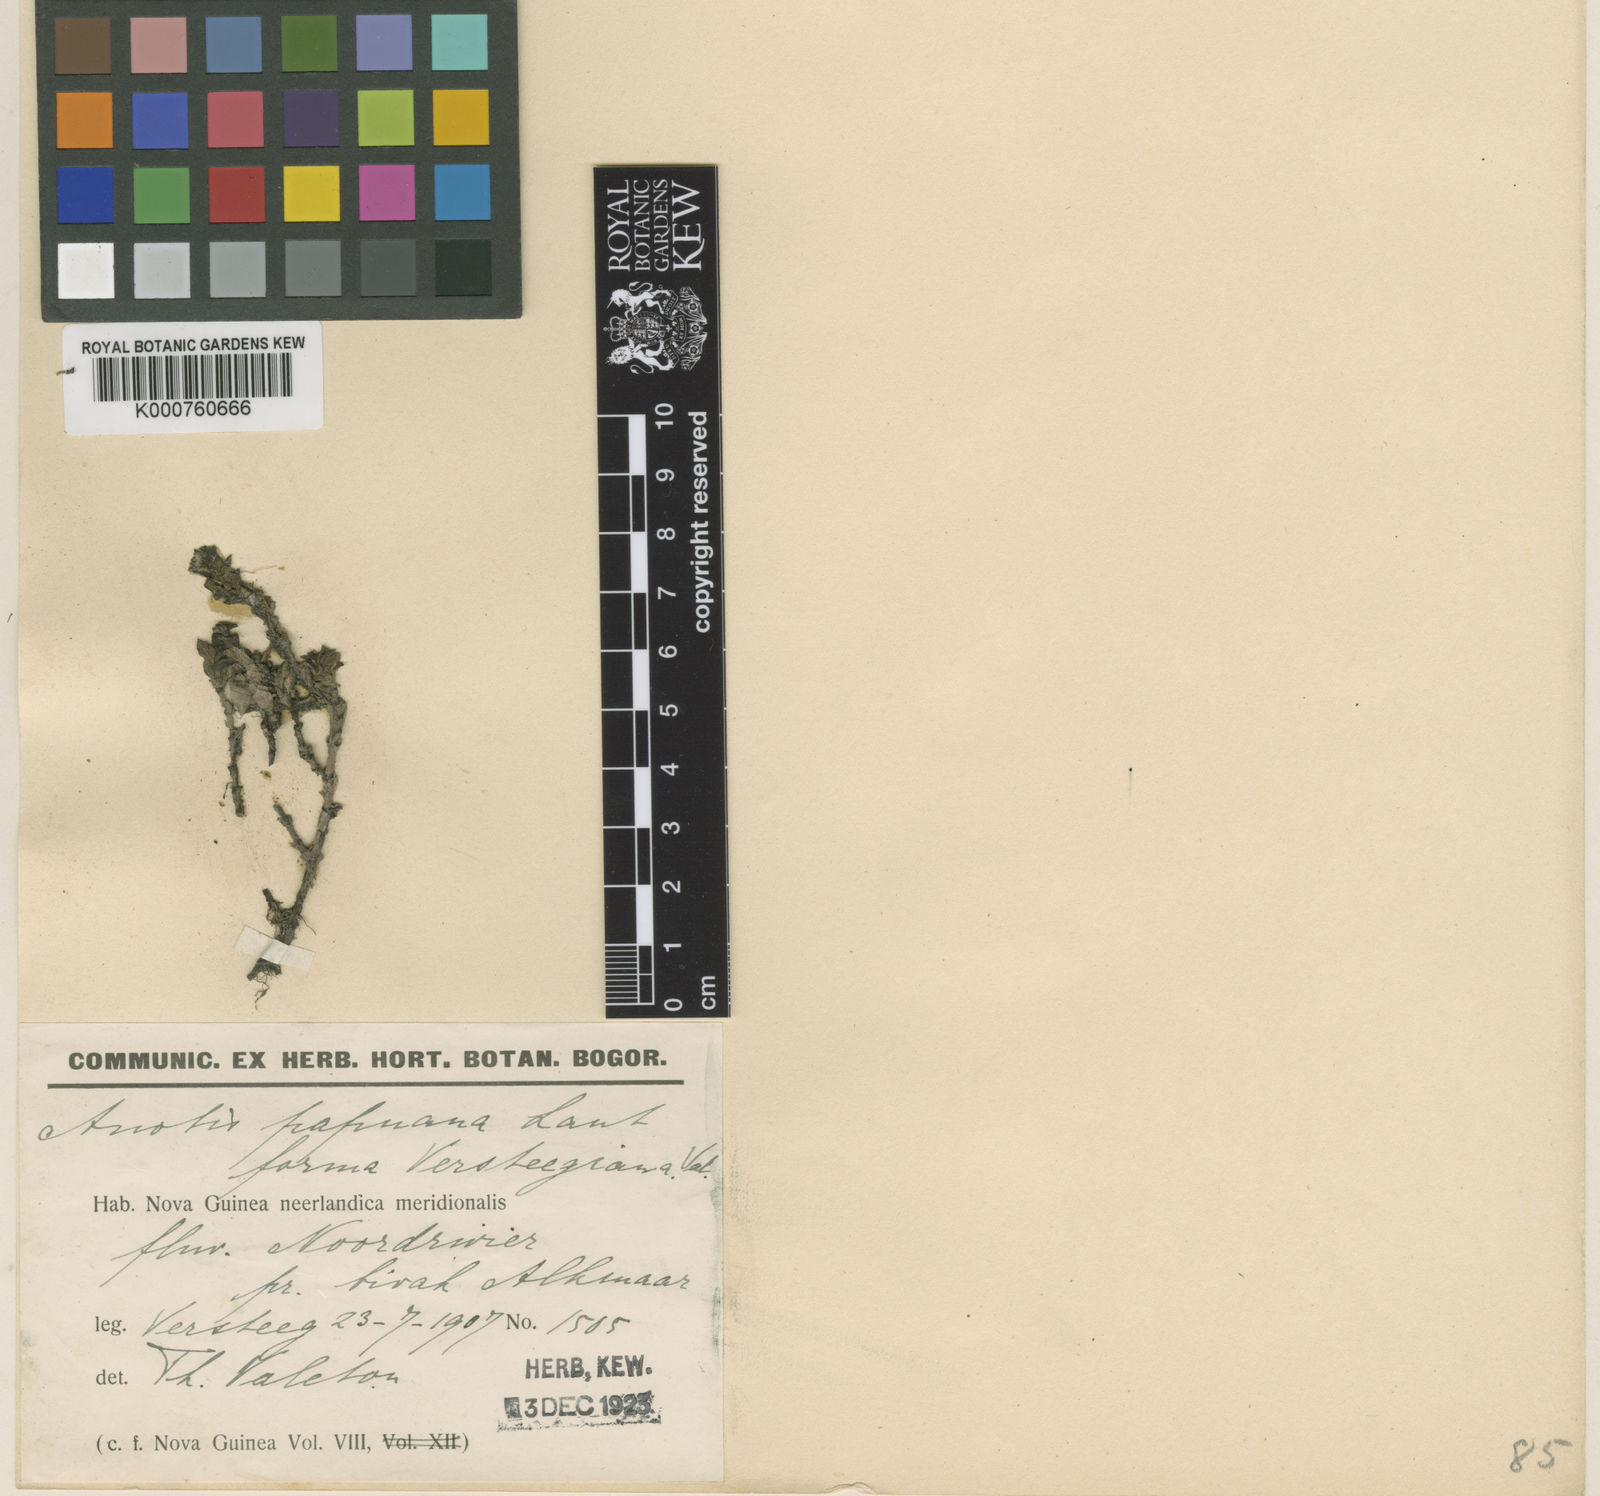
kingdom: Plantae
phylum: Tracheophyta
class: Magnoliopsida
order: Gentianales
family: Rubiaceae
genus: Neanotis
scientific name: Neanotis hirsuta
